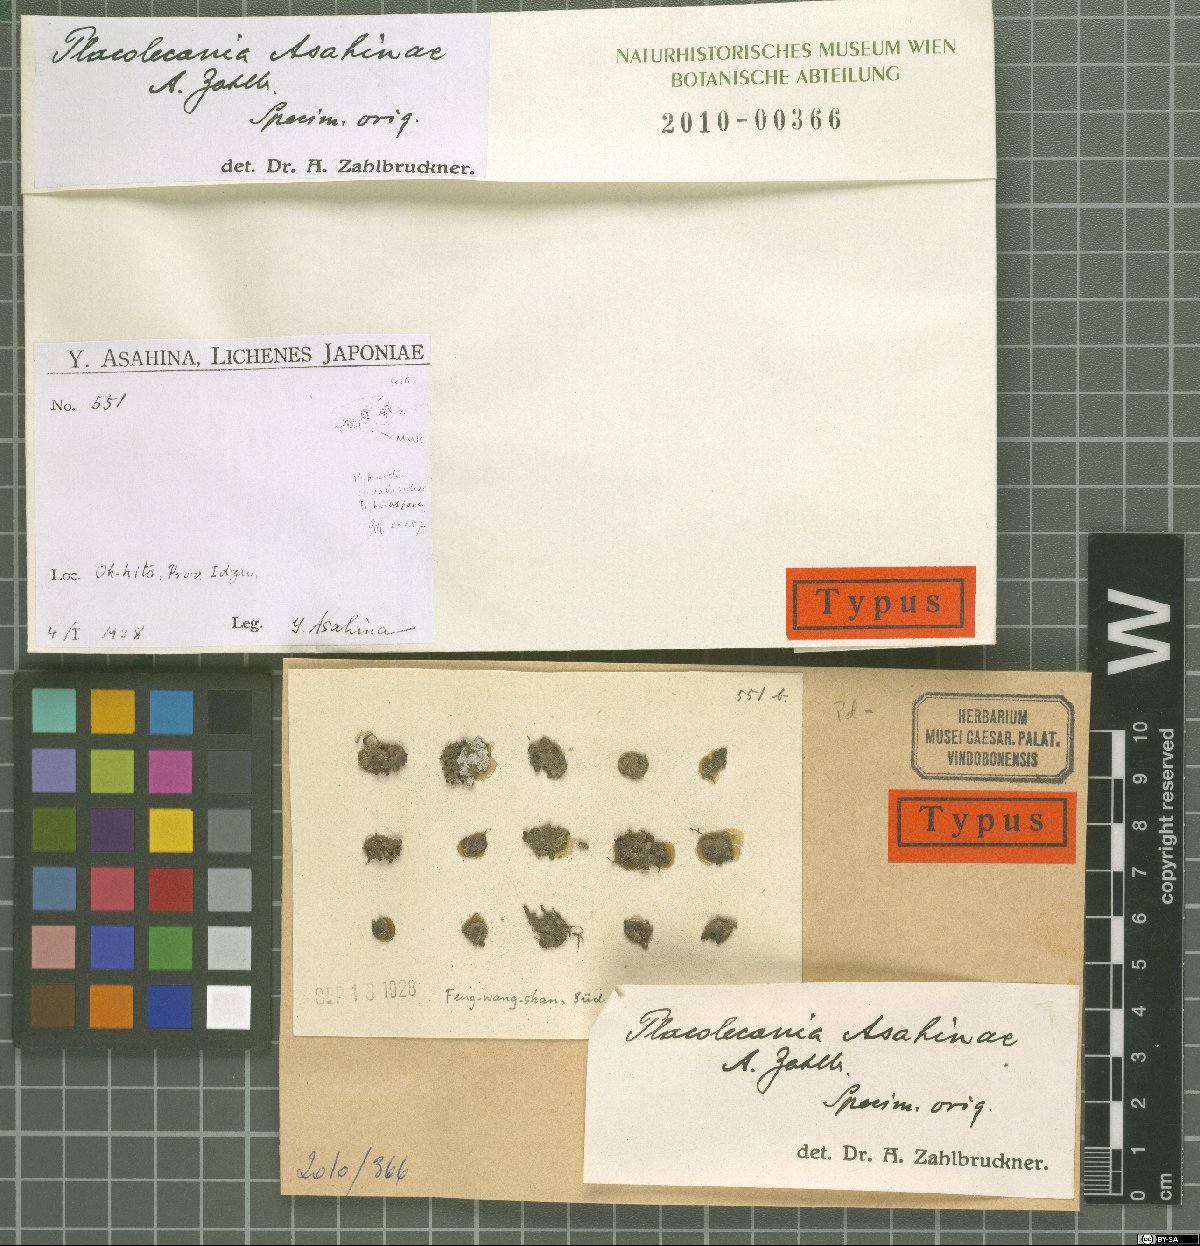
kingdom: Fungi
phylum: Ascomycota
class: Lecanoromycetes
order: Lecanorales
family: Lecanoraceae
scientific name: Lecanoraceae
